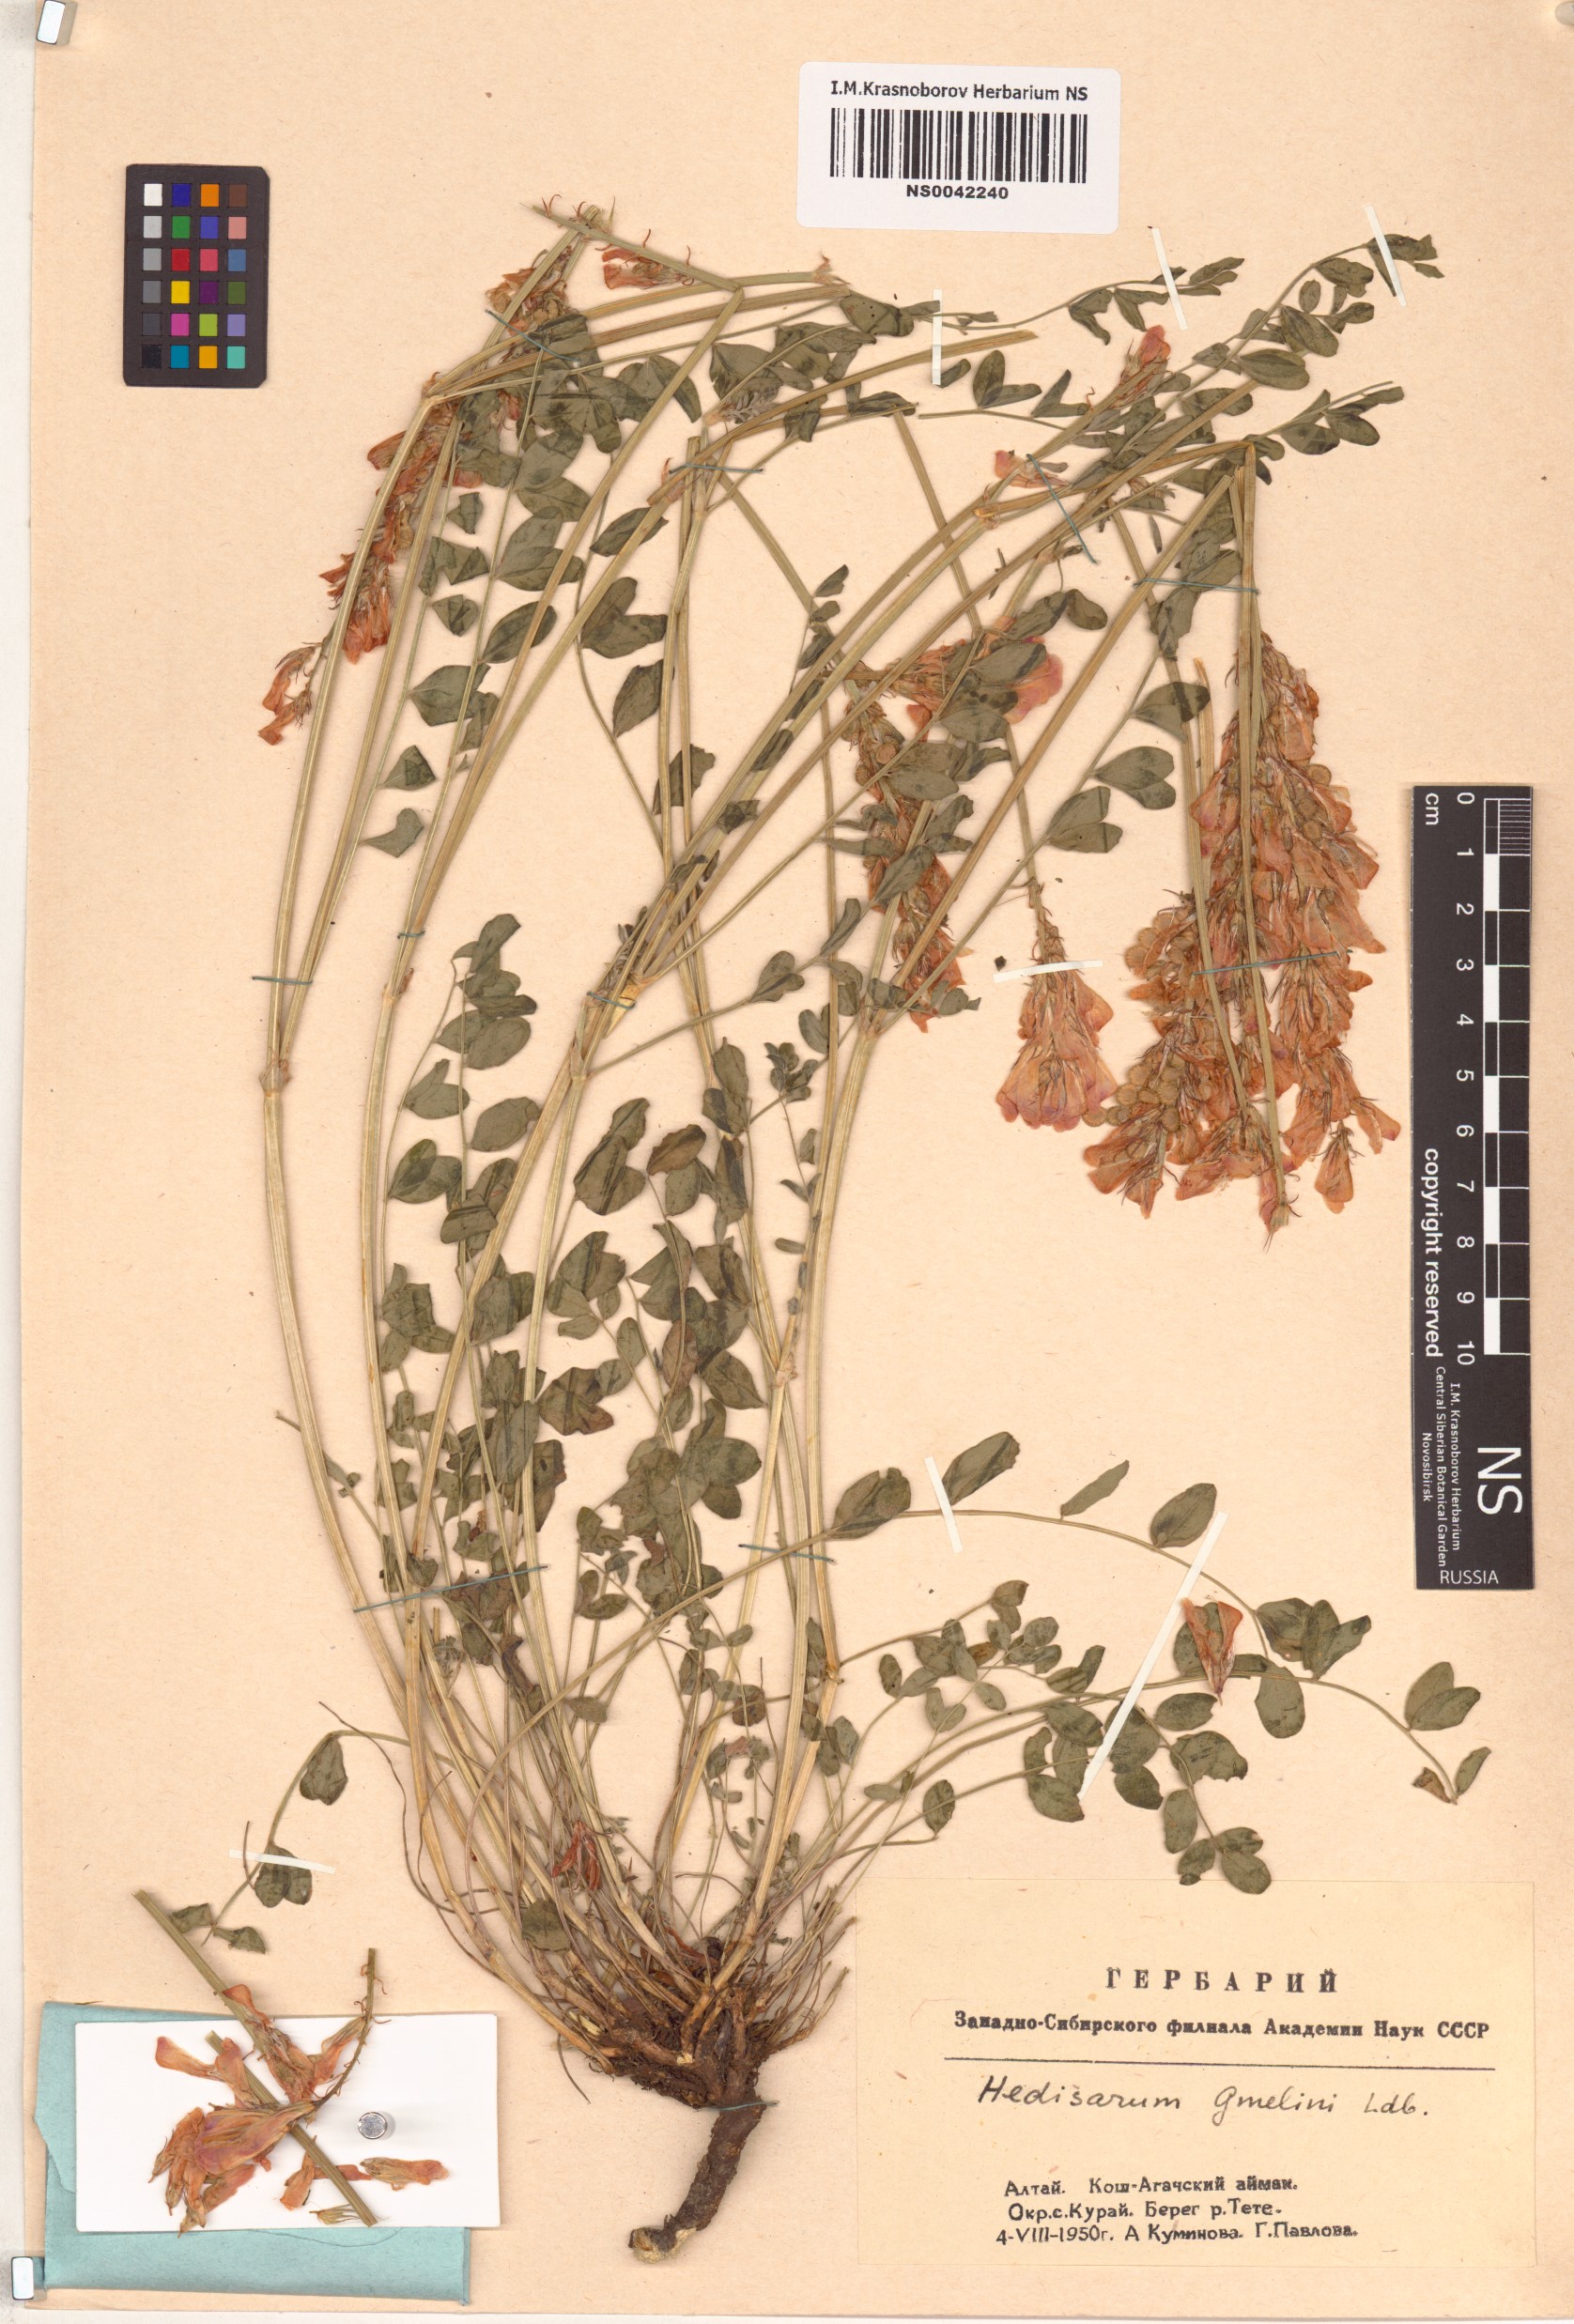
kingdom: Plantae
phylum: Tracheophyta
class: Magnoliopsida
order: Fabales
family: Fabaceae
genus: Hedysarum
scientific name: Hedysarum gmelinii
